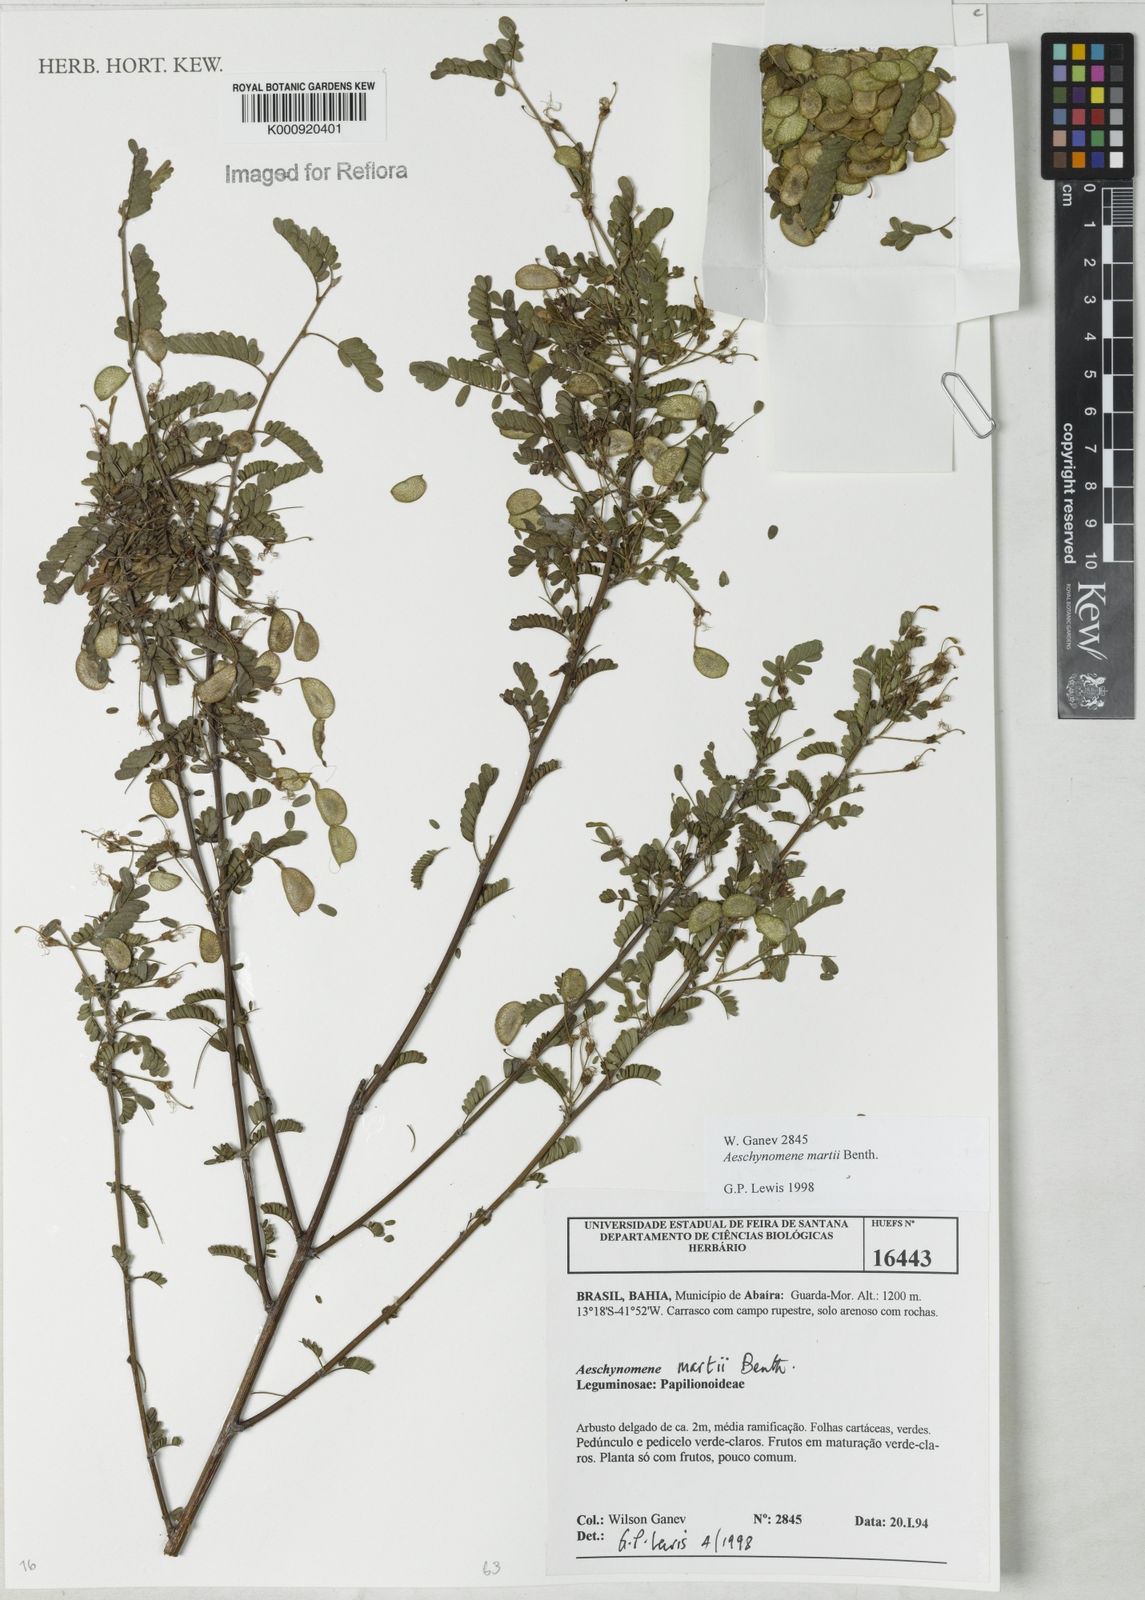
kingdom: Plantae
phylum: Tracheophyta
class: Magnoliopsida
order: Fabales
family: Fabaceae
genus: Ctenodon
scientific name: Ctenodon martii
